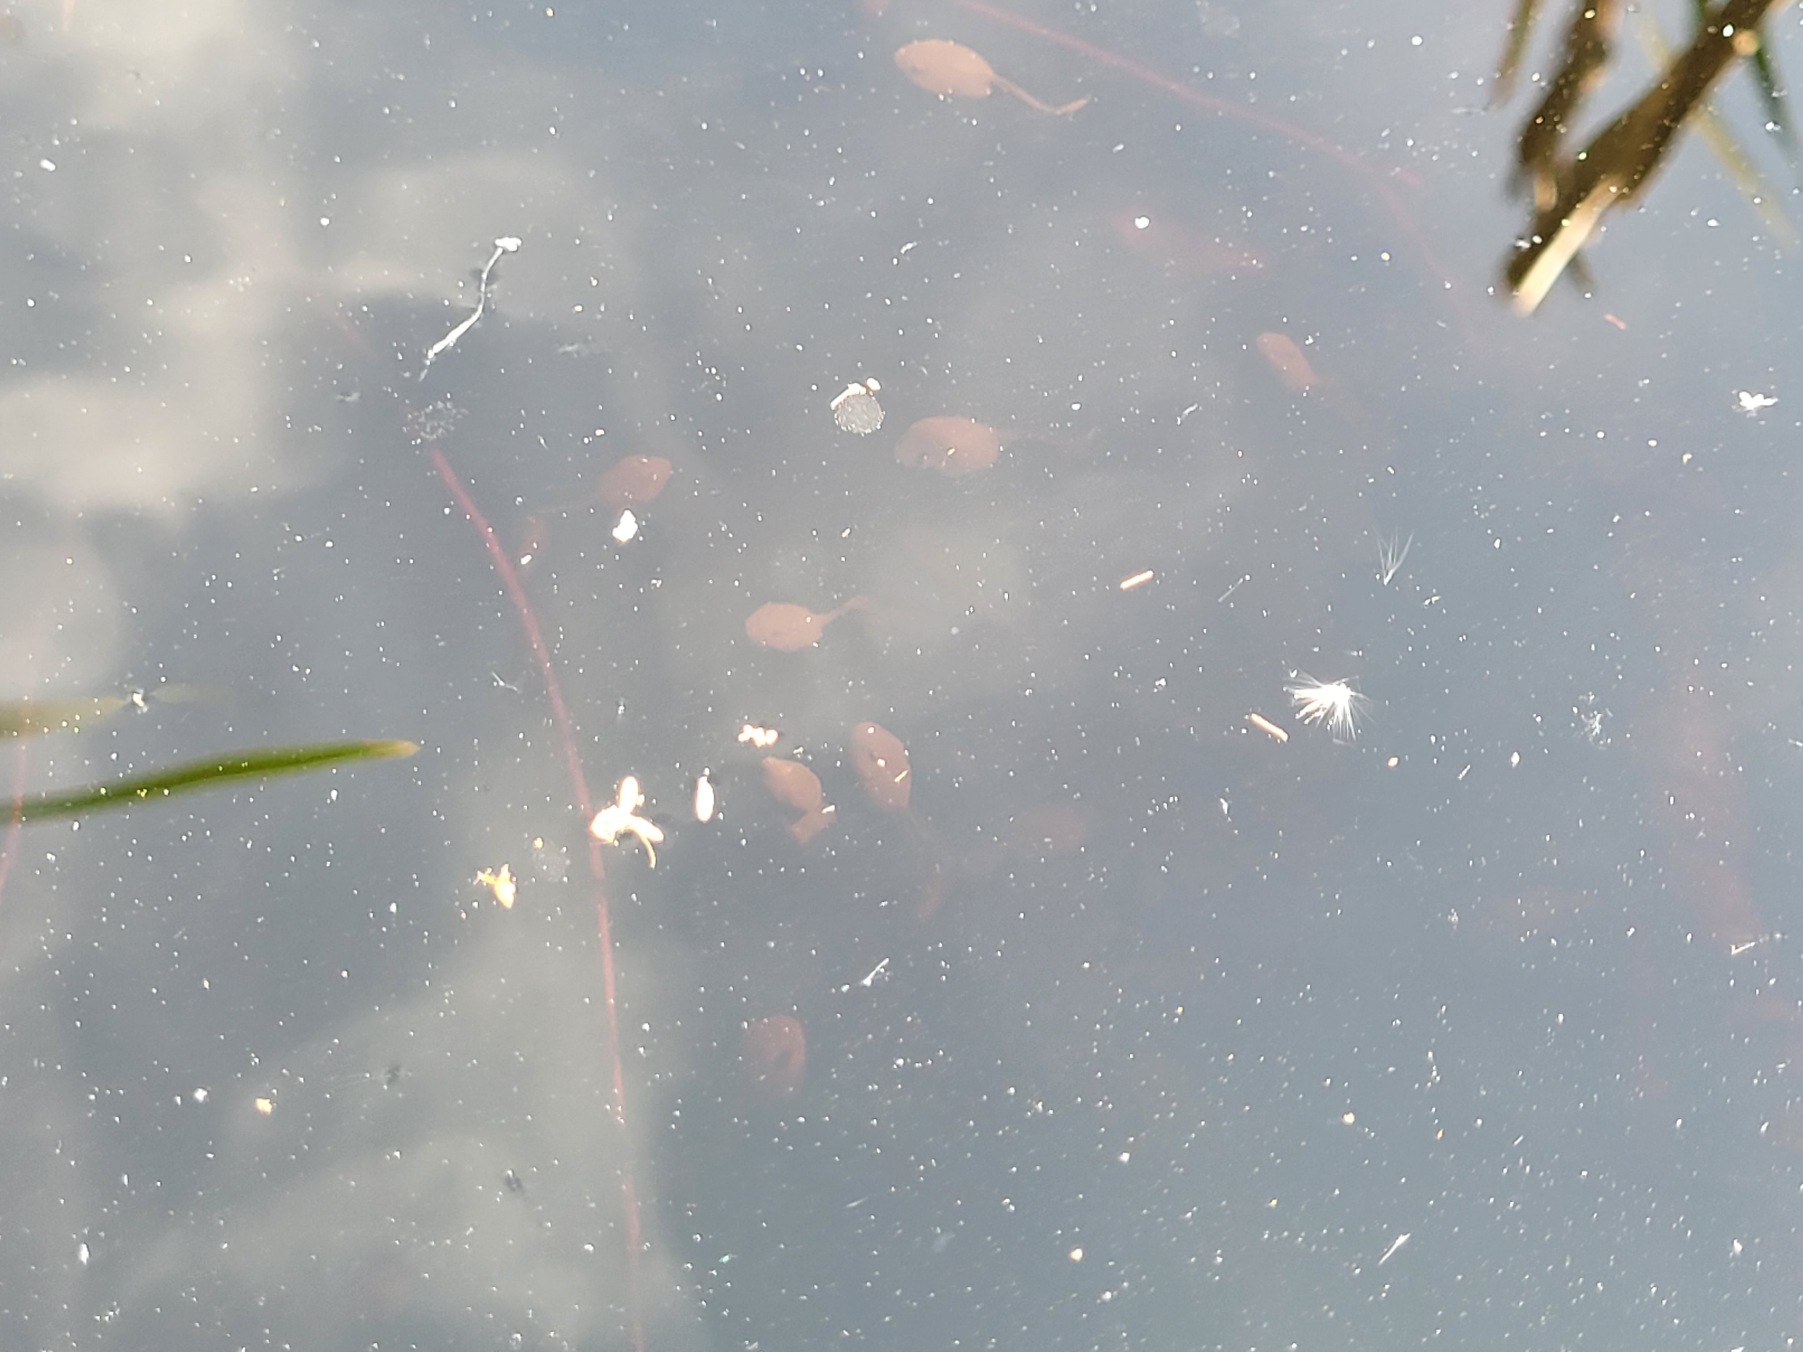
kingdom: Animalia
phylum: Chordata
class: Amphibia
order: Anura
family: Bufonidae
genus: Bufo
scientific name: Bufo bufo
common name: Skrubtudse
